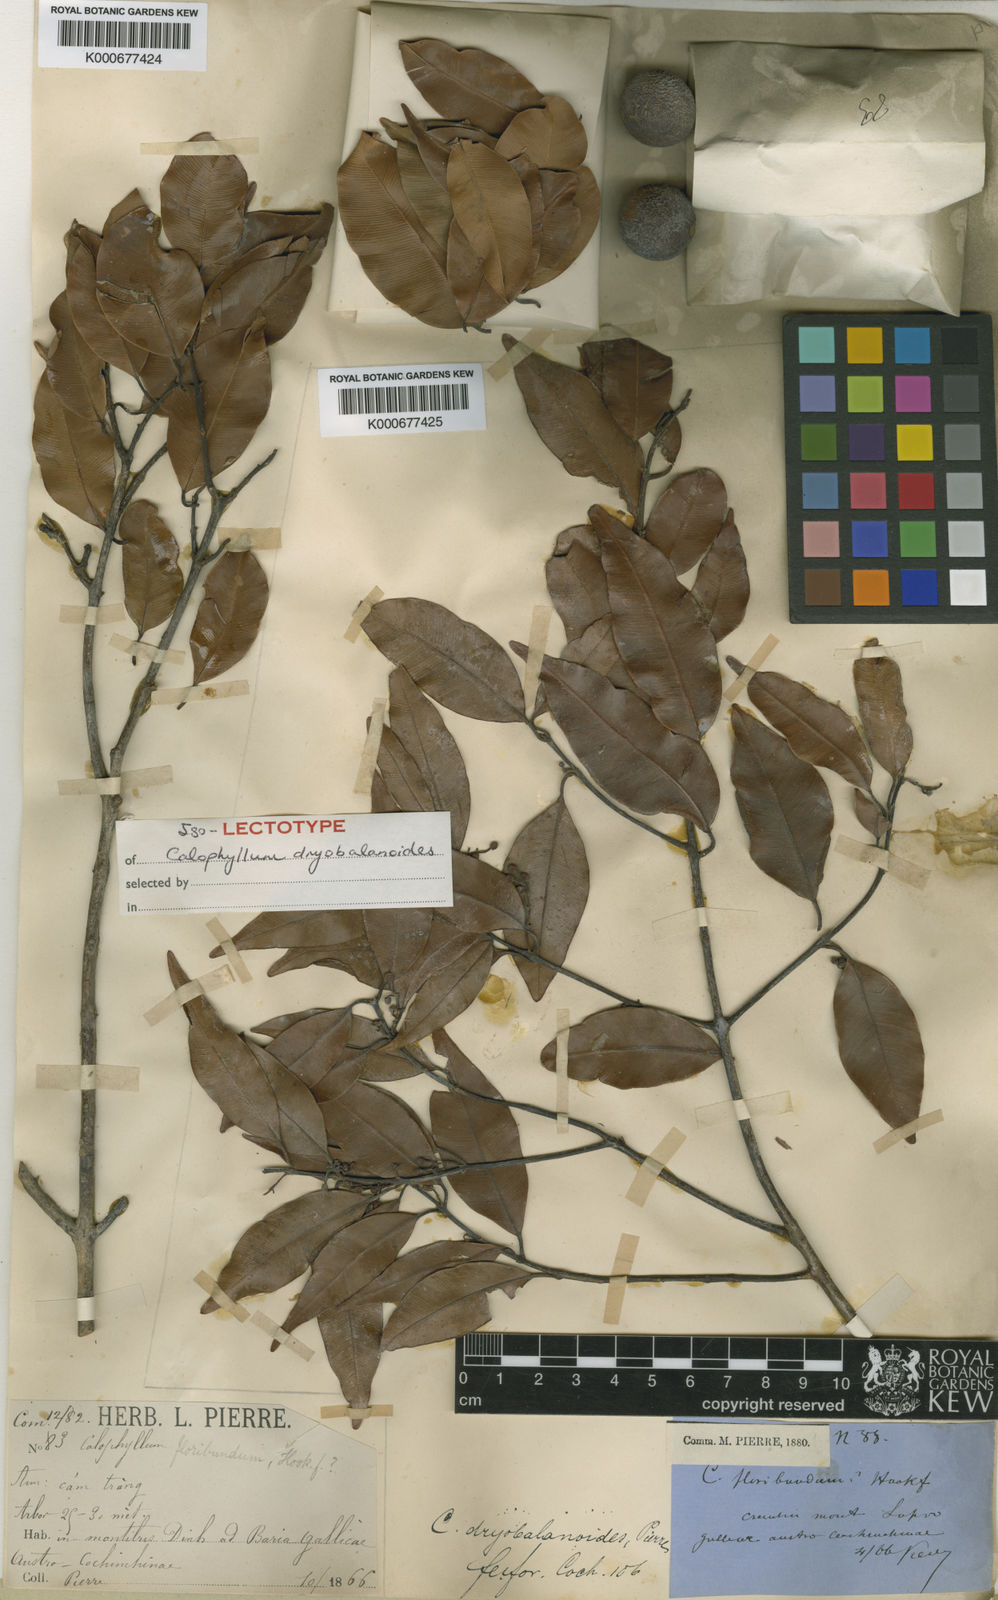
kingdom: Plantae
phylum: Tracheophyta
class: Magnoliopsida
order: Malpighiales
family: Calophyllaceae
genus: Calophyllum
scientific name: Calophyllum dryobalanoides
